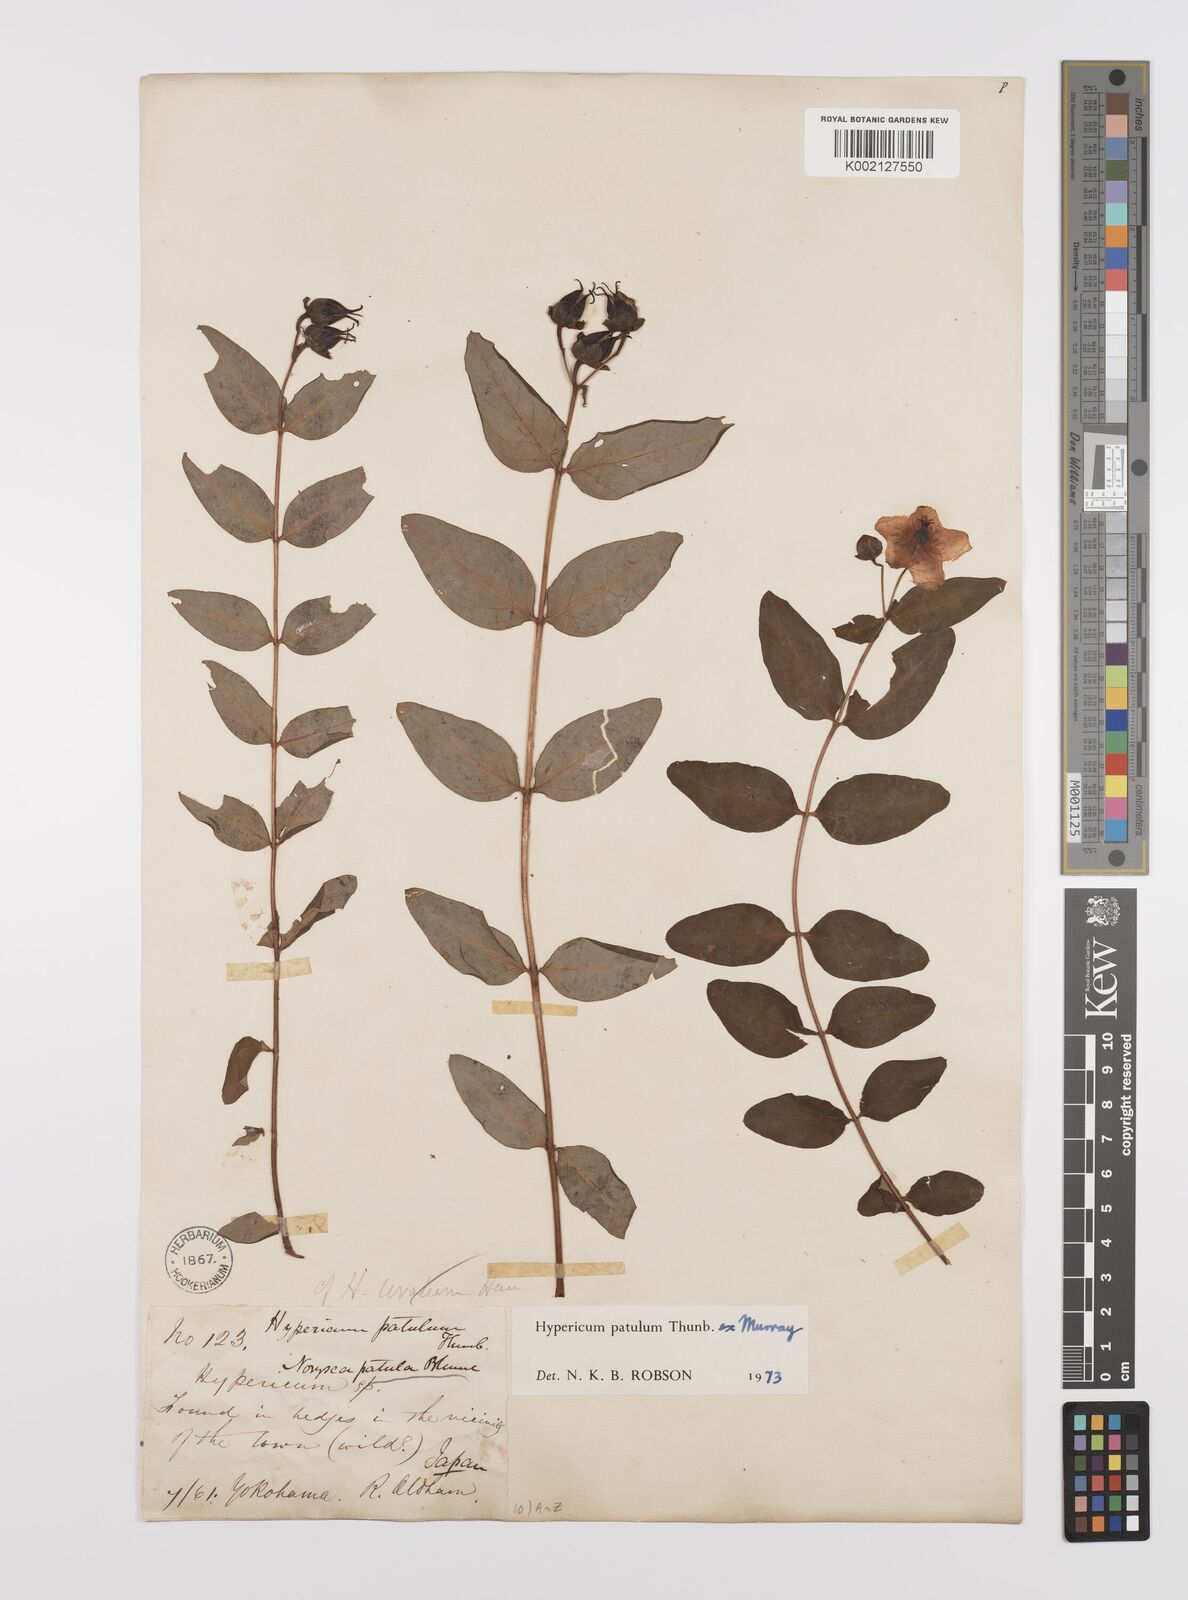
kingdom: Plantae
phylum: Tracheophyta
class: Magnoliopsida
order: Malpighiales
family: Hypericaceae
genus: Hypericum
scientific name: Hypericum patulum
